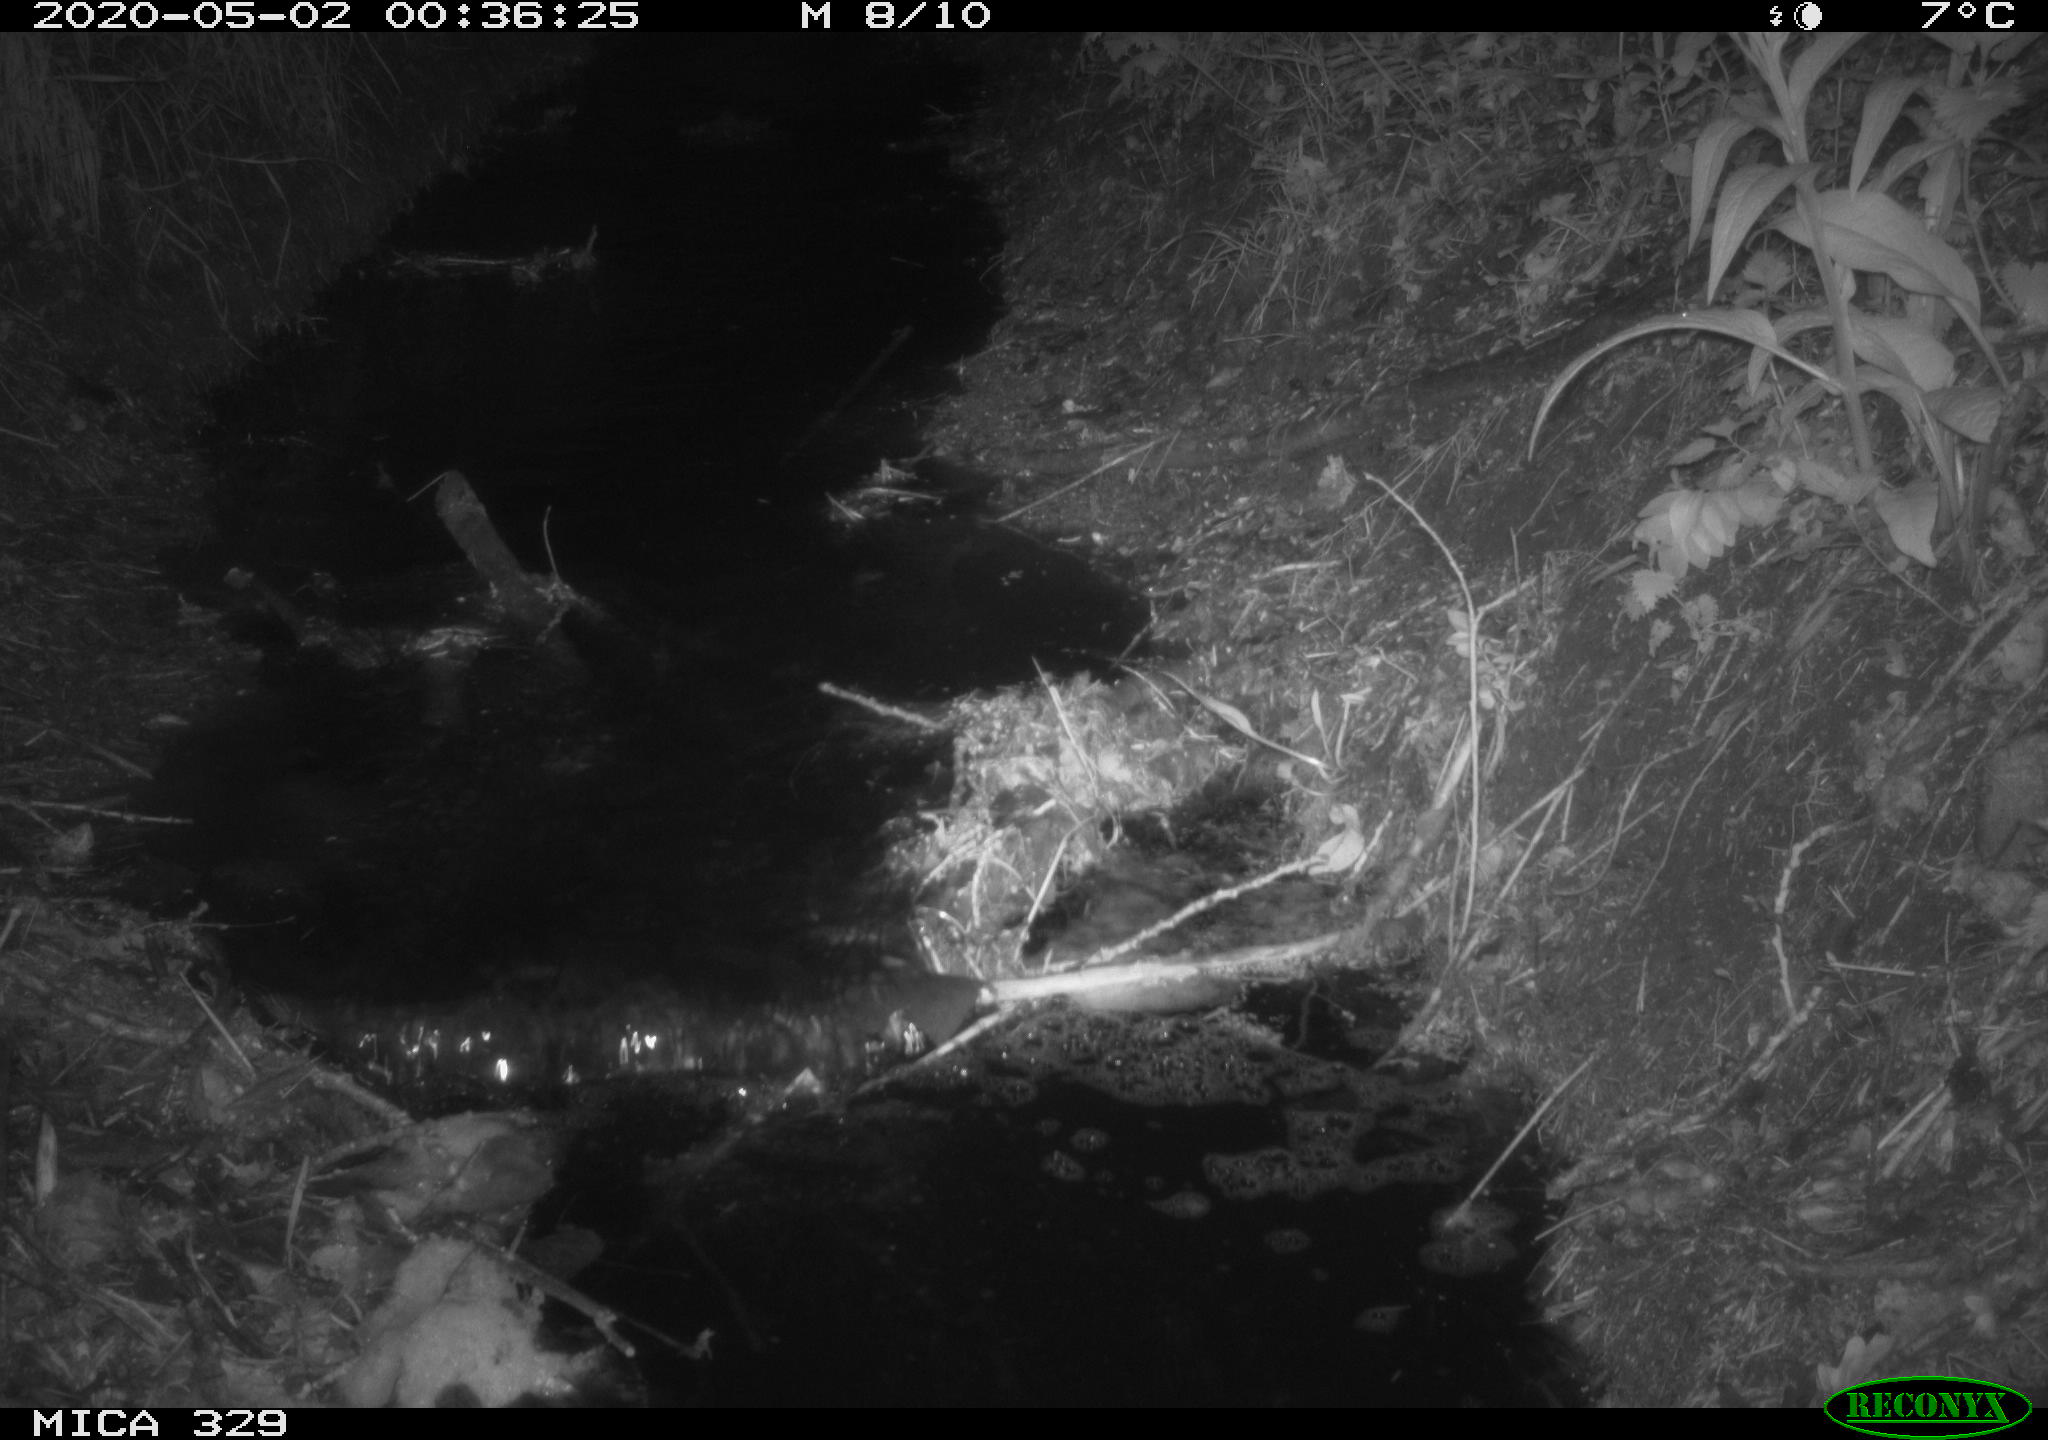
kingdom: Animalia
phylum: Chordata
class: Mammalia
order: Rodentia
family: Cricetidae
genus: Ondatra
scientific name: Ondatra zibethicus
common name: Muskrat
